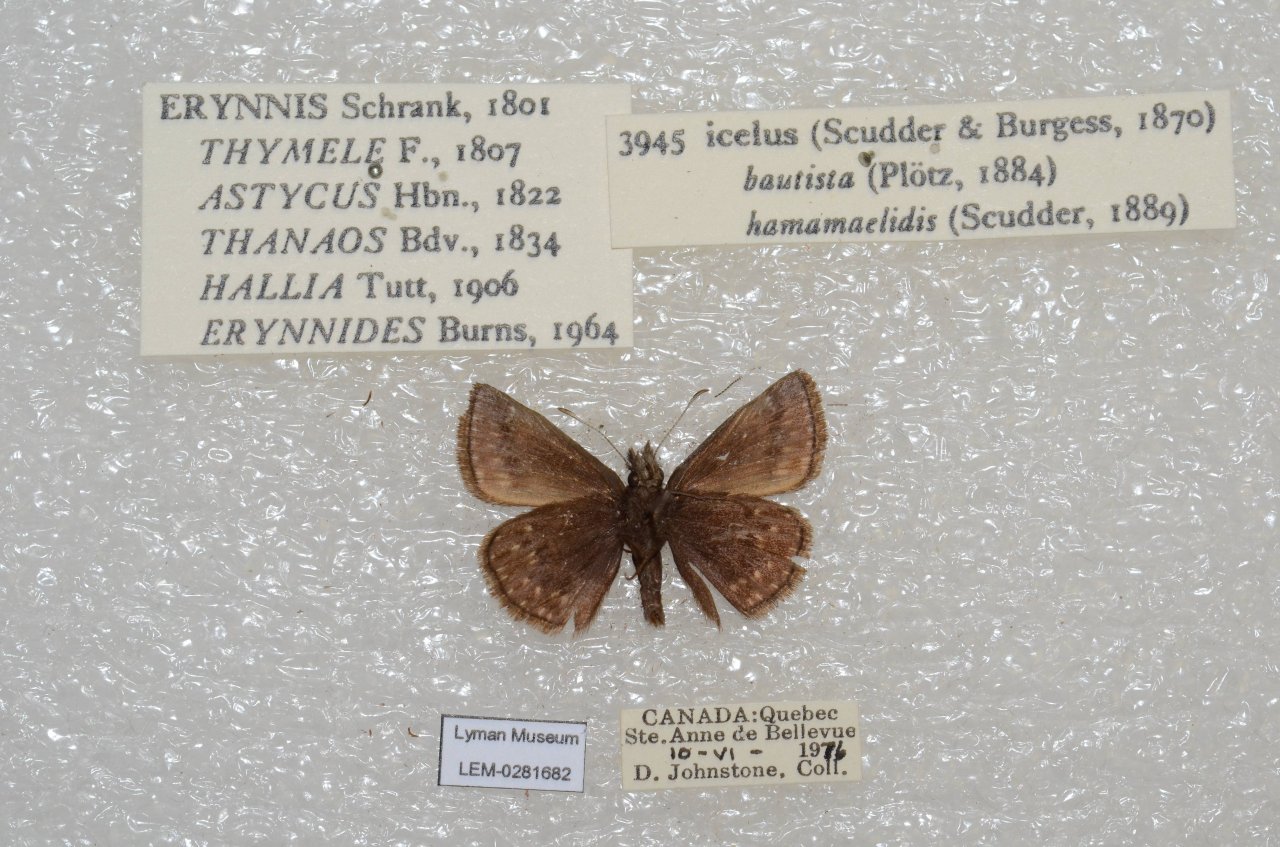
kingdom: Animalia
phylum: Arthropoda
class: Insecta
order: Lepidoptera
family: Hesperiidae
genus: Erynnis
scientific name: Erynnis icelus
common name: Dreamy Duskywing
